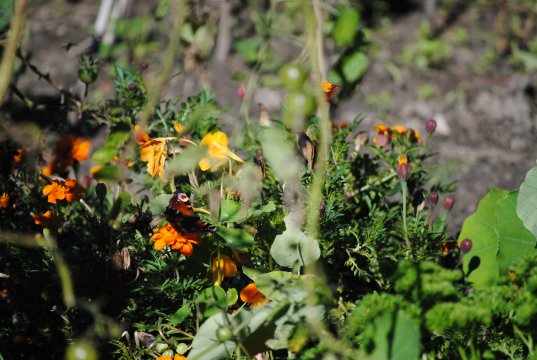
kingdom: Animalia
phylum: Arthropoda
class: Insecta
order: Lepidoptera
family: Nymphalidae
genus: Aglais
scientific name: Aglais io
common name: European Peacock
